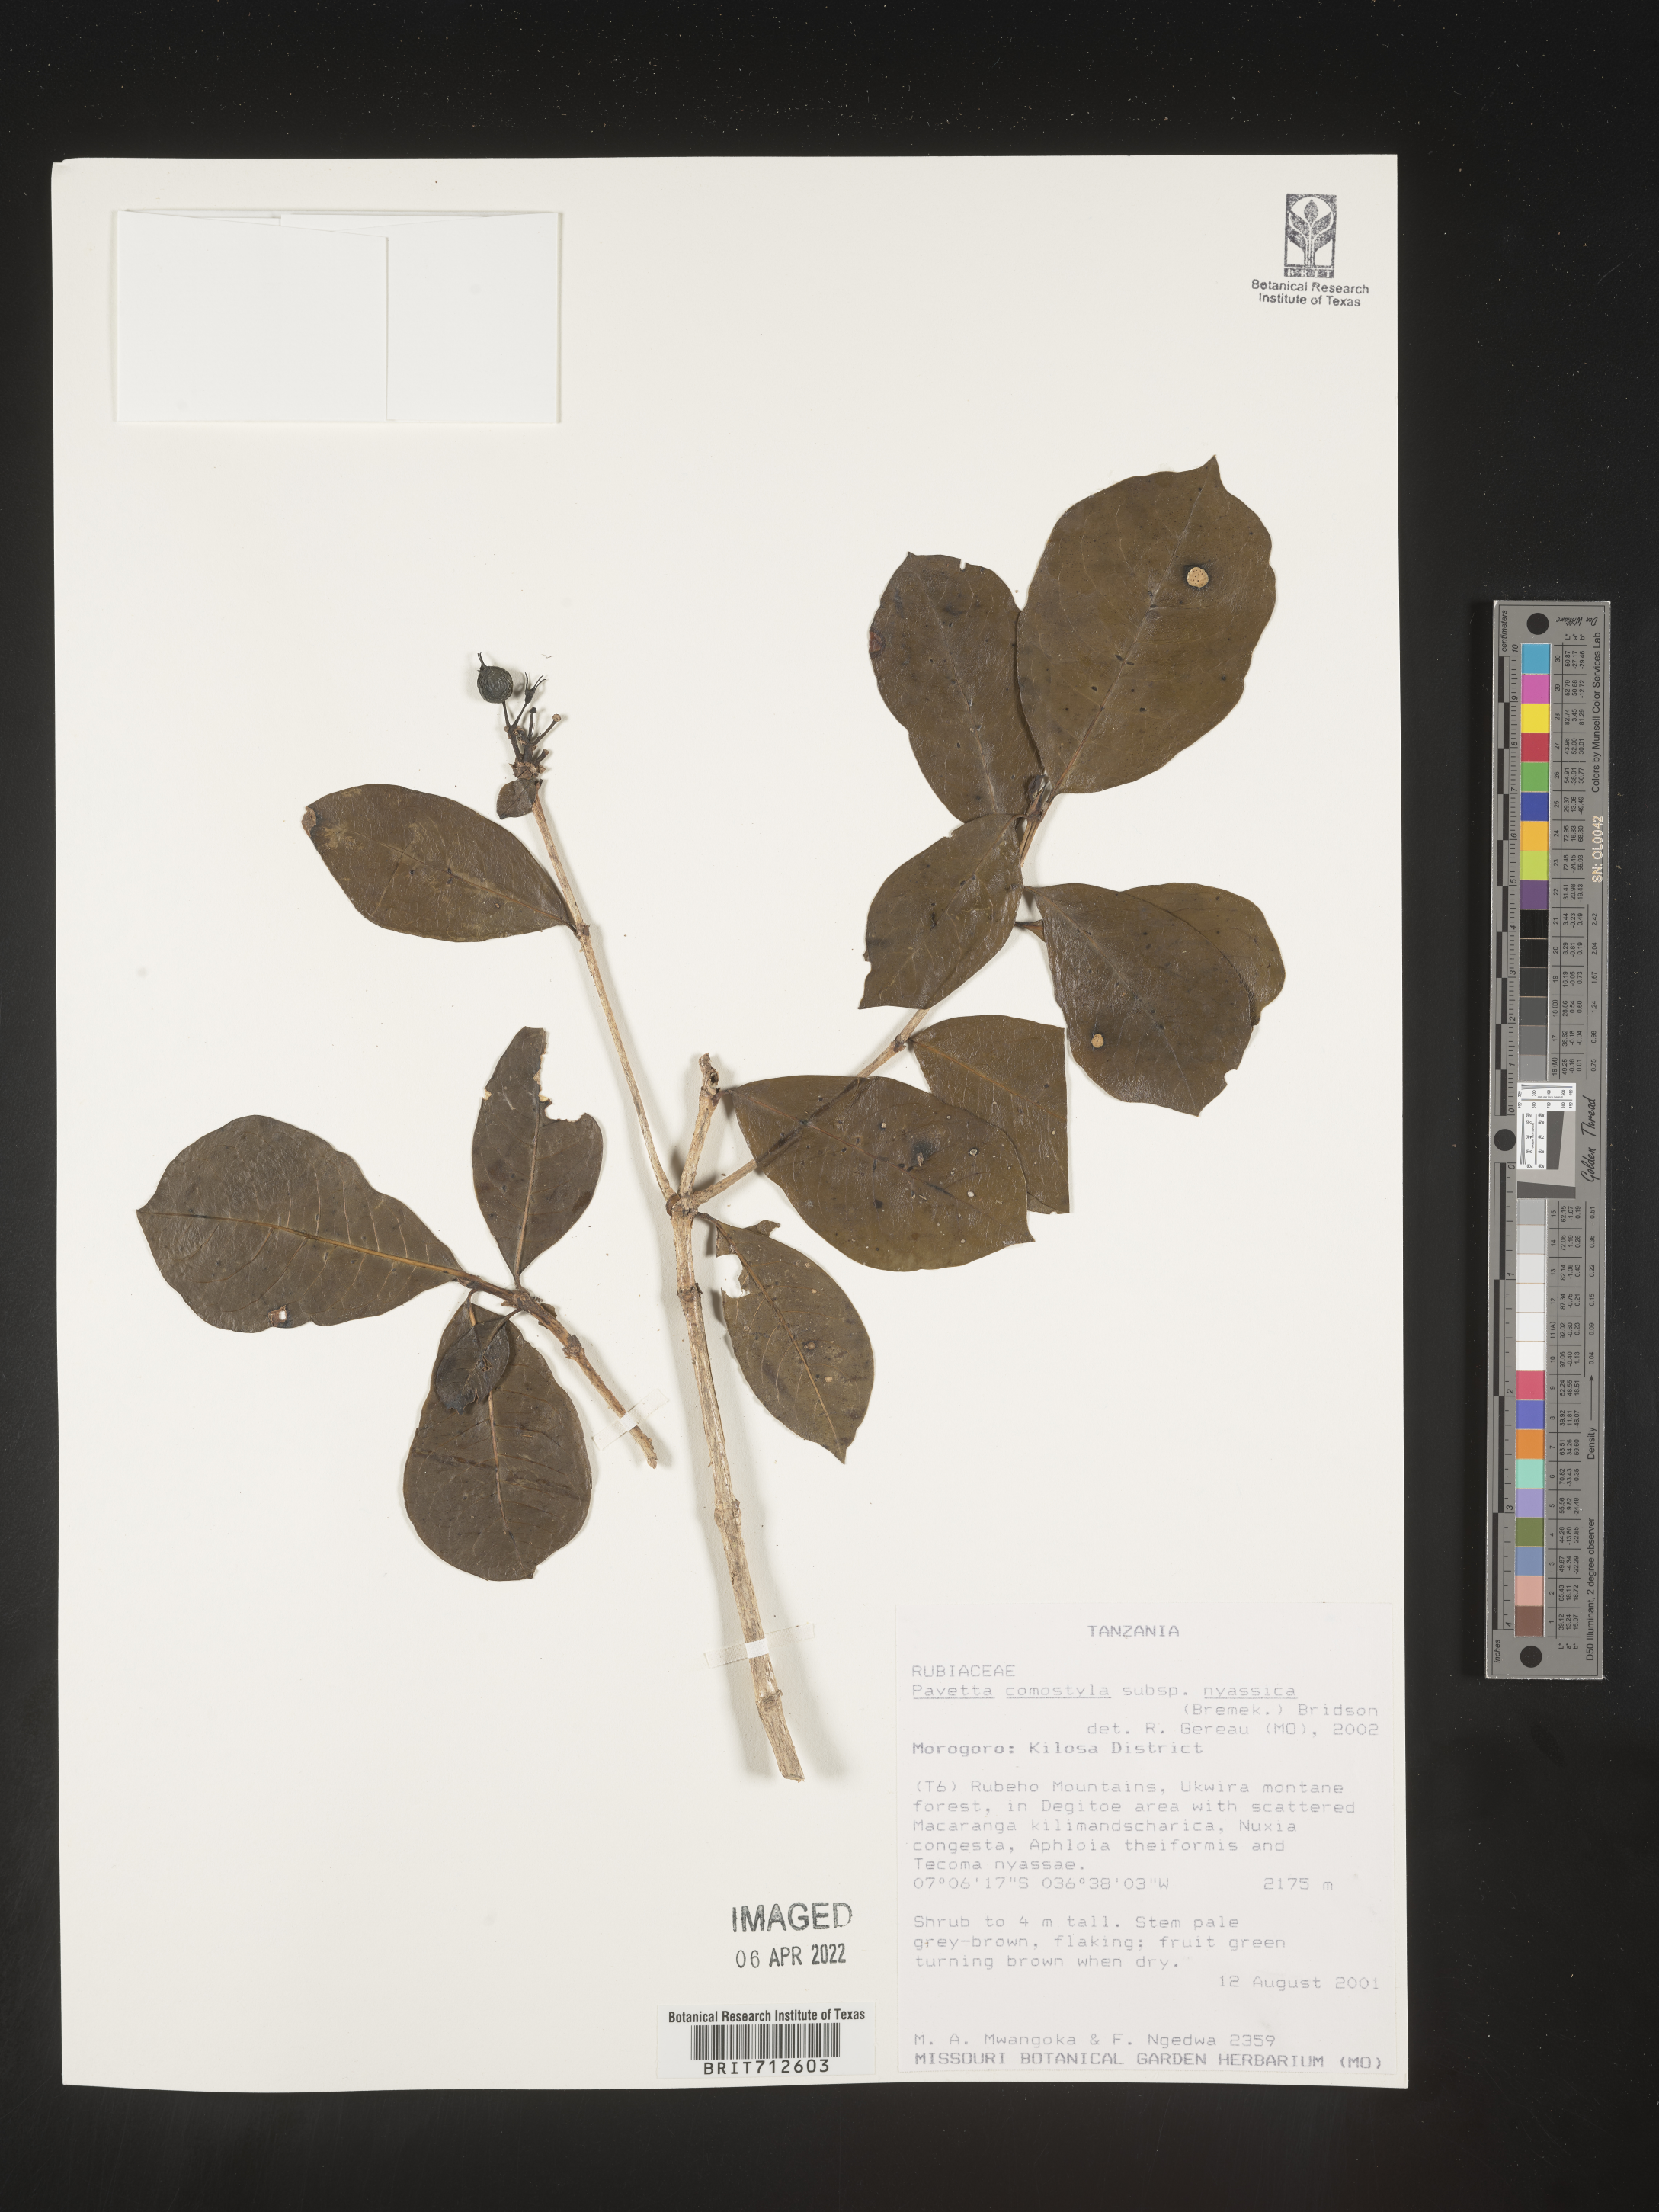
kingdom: Plantae
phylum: Tracheophyta
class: Magnoliopsida
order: Gentianales
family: Rubiaceae
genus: Pavetta
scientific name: Pavetta
